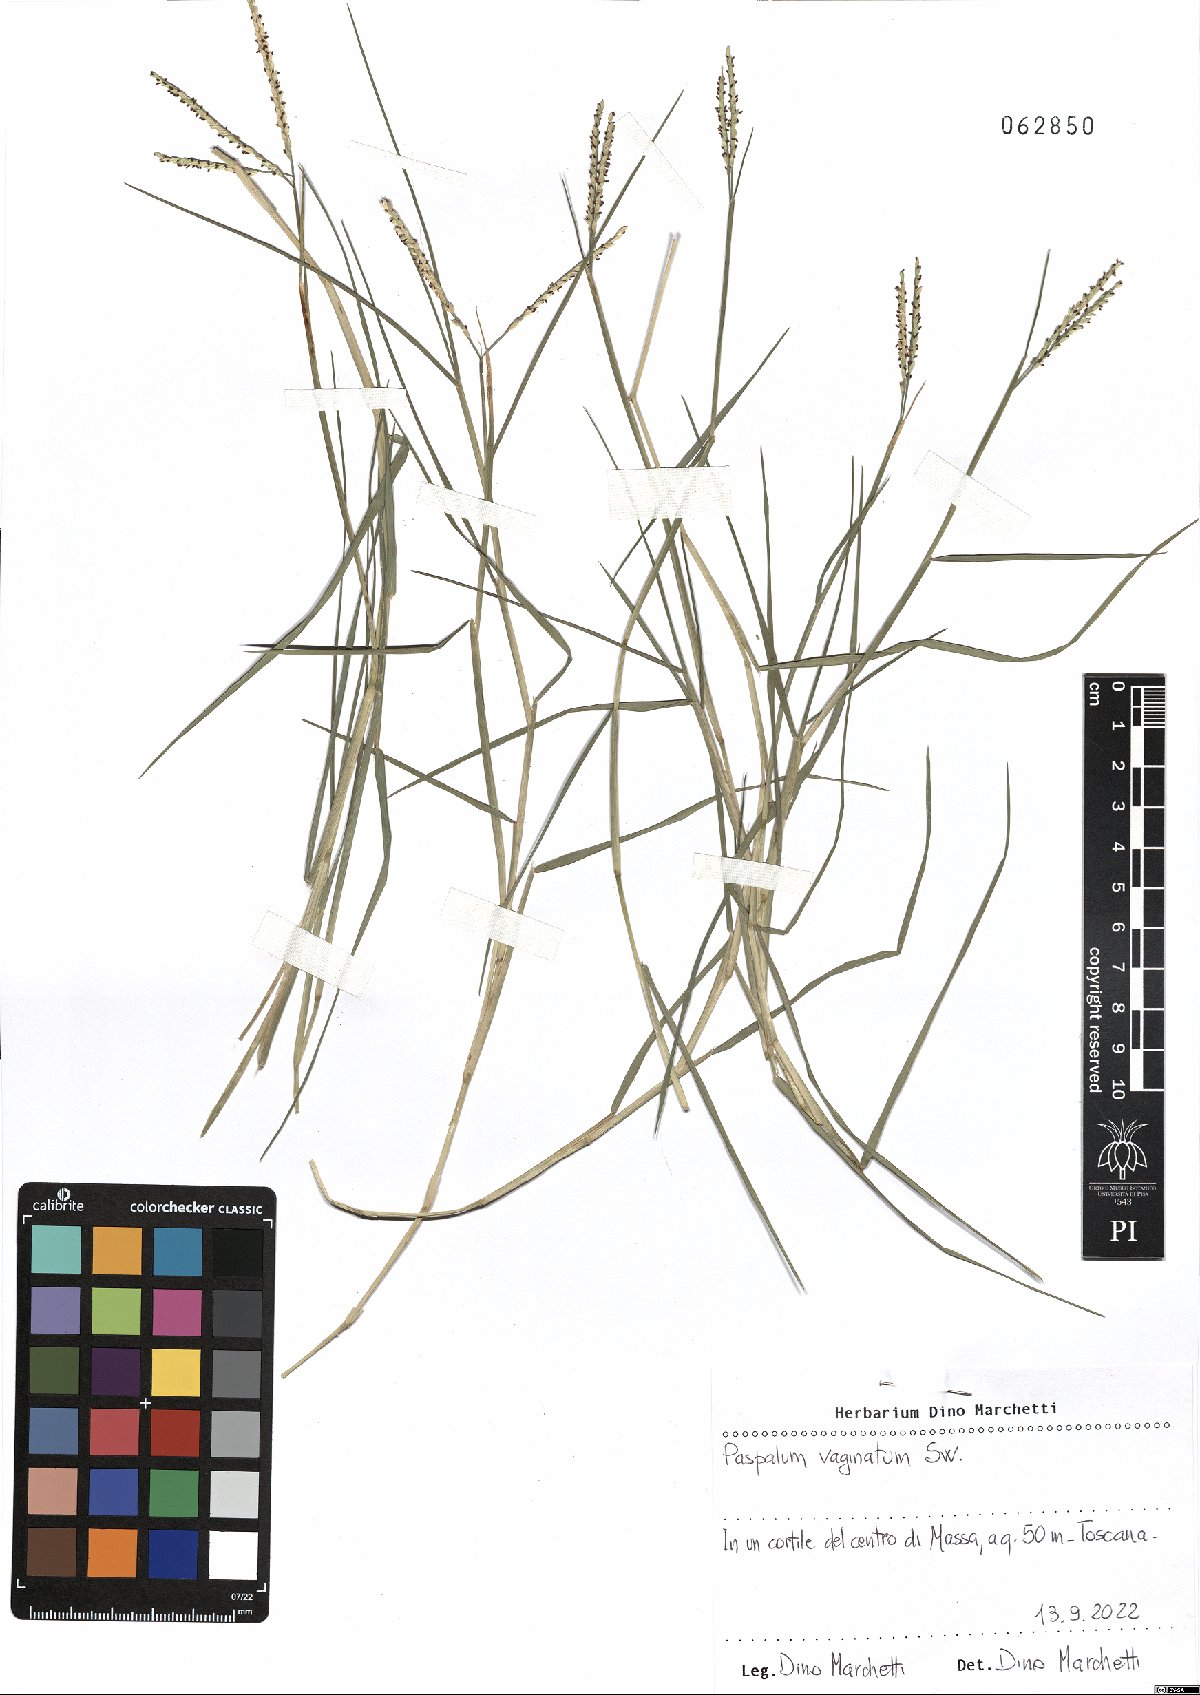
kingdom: Plantae
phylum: Tracheophyta
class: Liliopsida
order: Poales
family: Poaceae
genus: Paspalum
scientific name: Paspalum vaginatum
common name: Seashore paspalum
